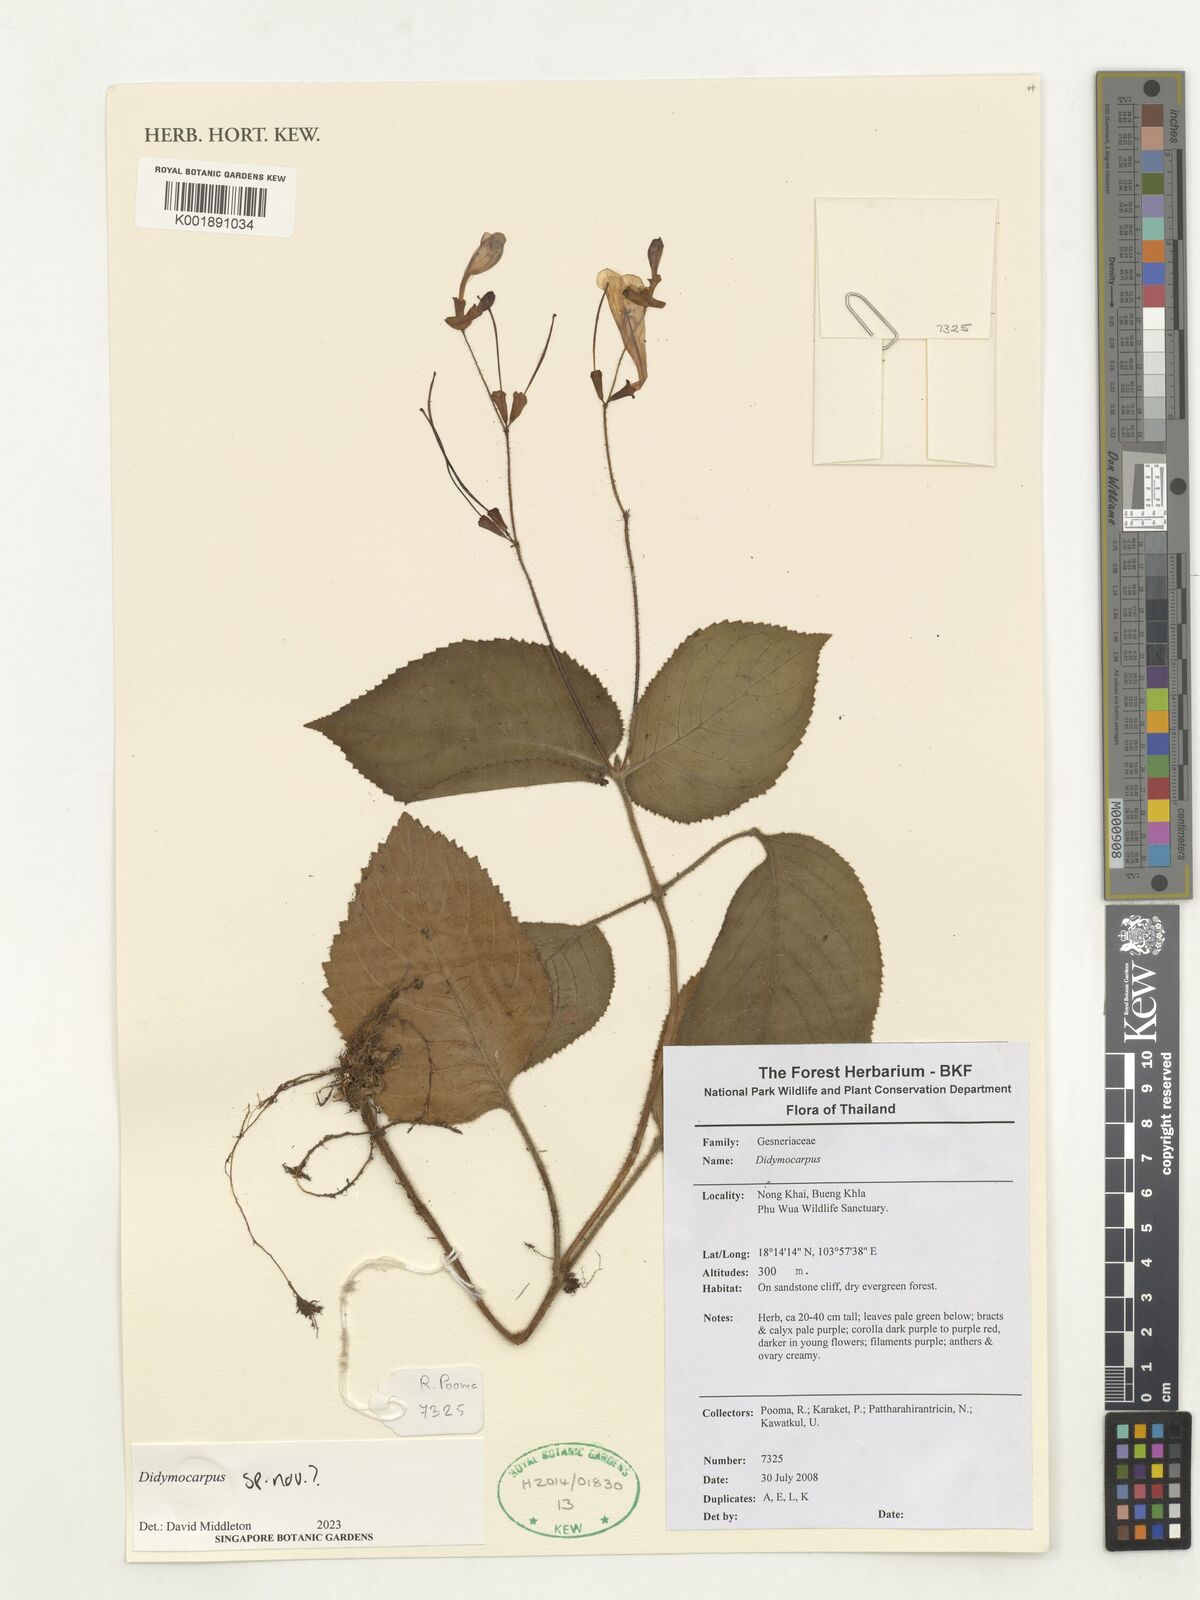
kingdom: Plantae
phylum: Tracheophyta
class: Magnoliopsida
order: Lamiales
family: Gesneriaceae
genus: Didymocarpus
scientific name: Didymocarpus
